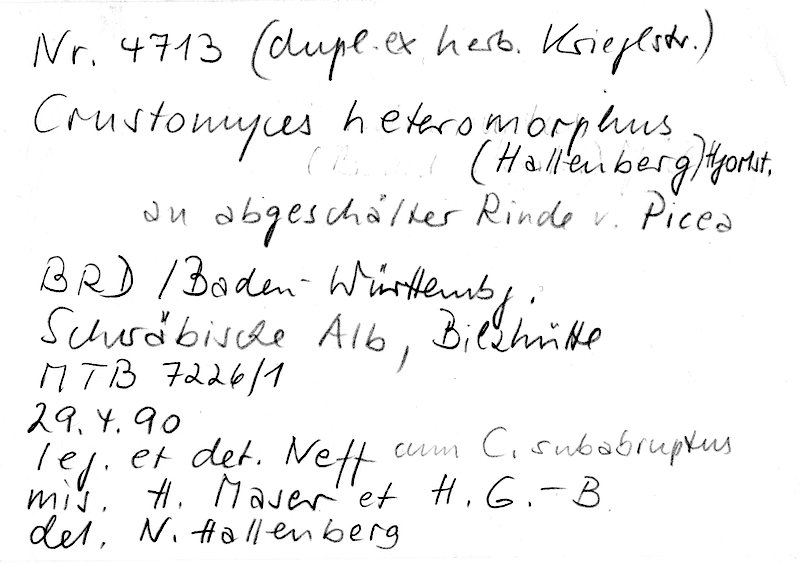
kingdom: Plantae
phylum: Tracheophyta
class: Pinopsida
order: Pinales
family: Pinaceae
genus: Picea
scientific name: Picea
